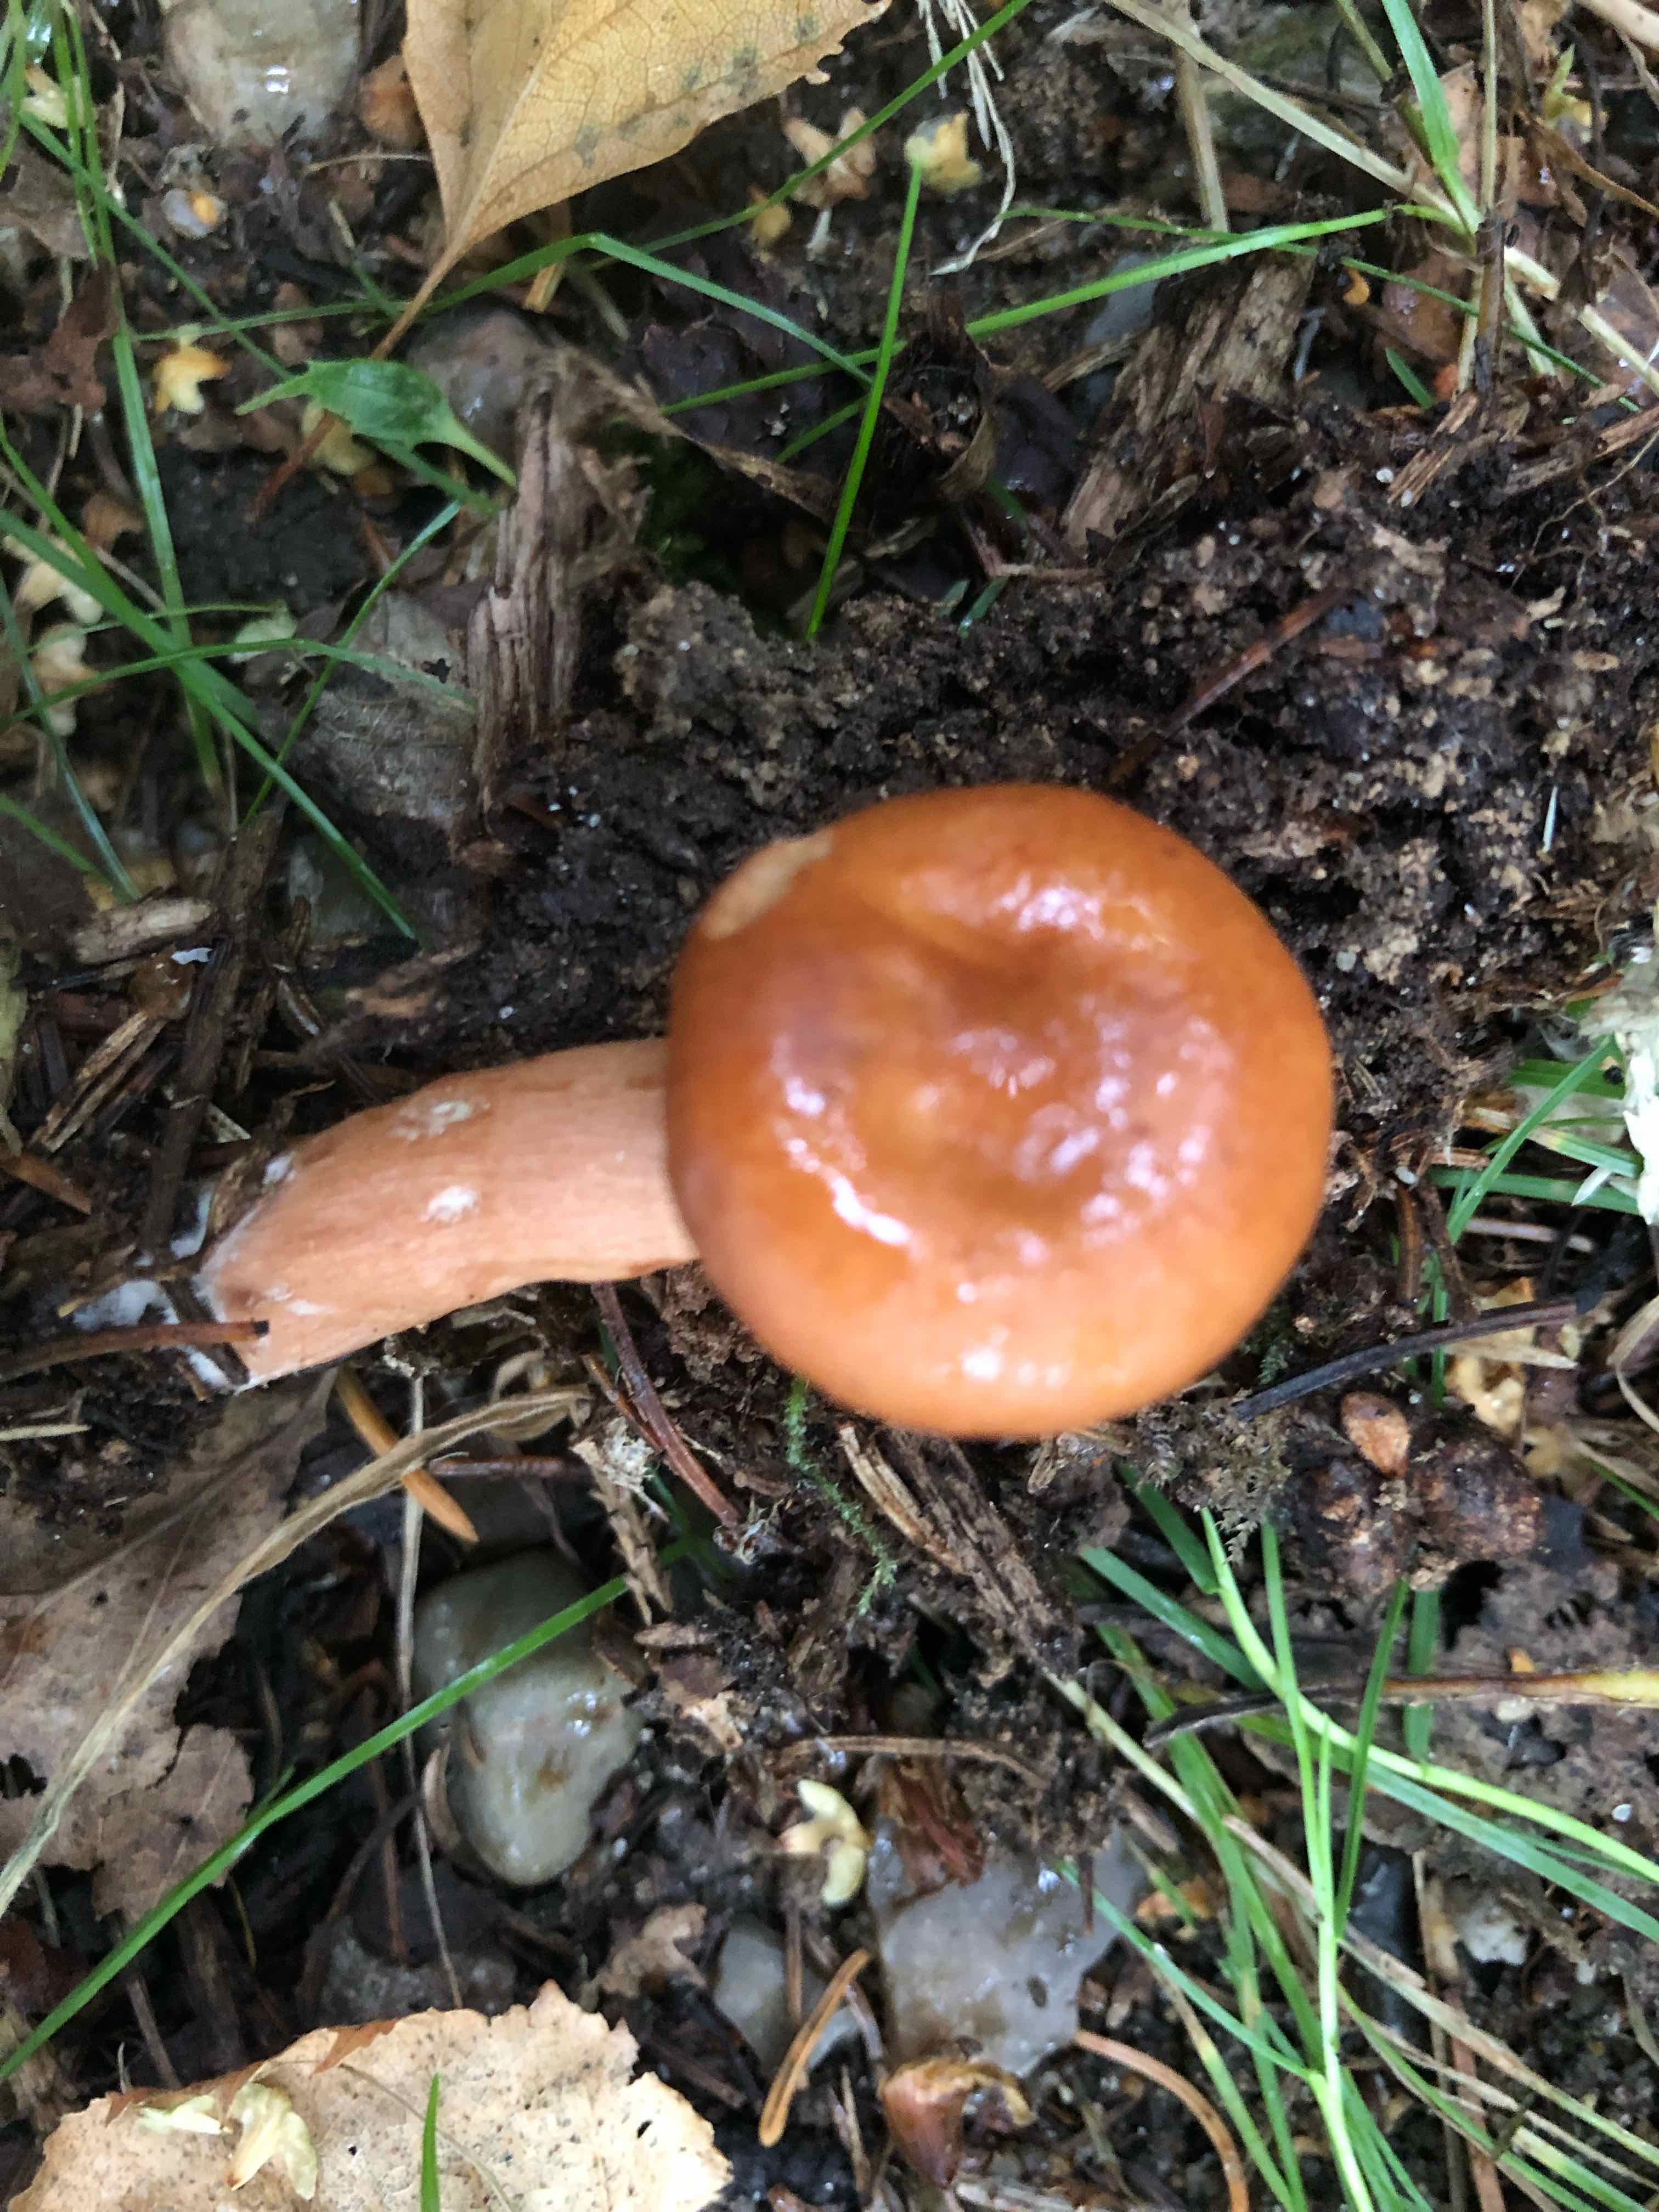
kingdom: Fungi
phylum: Basidiomycota
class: Agaricomycetes
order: Russulales
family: Russulaceae
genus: Lactarius
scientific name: Lactarius
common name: mælkehat
